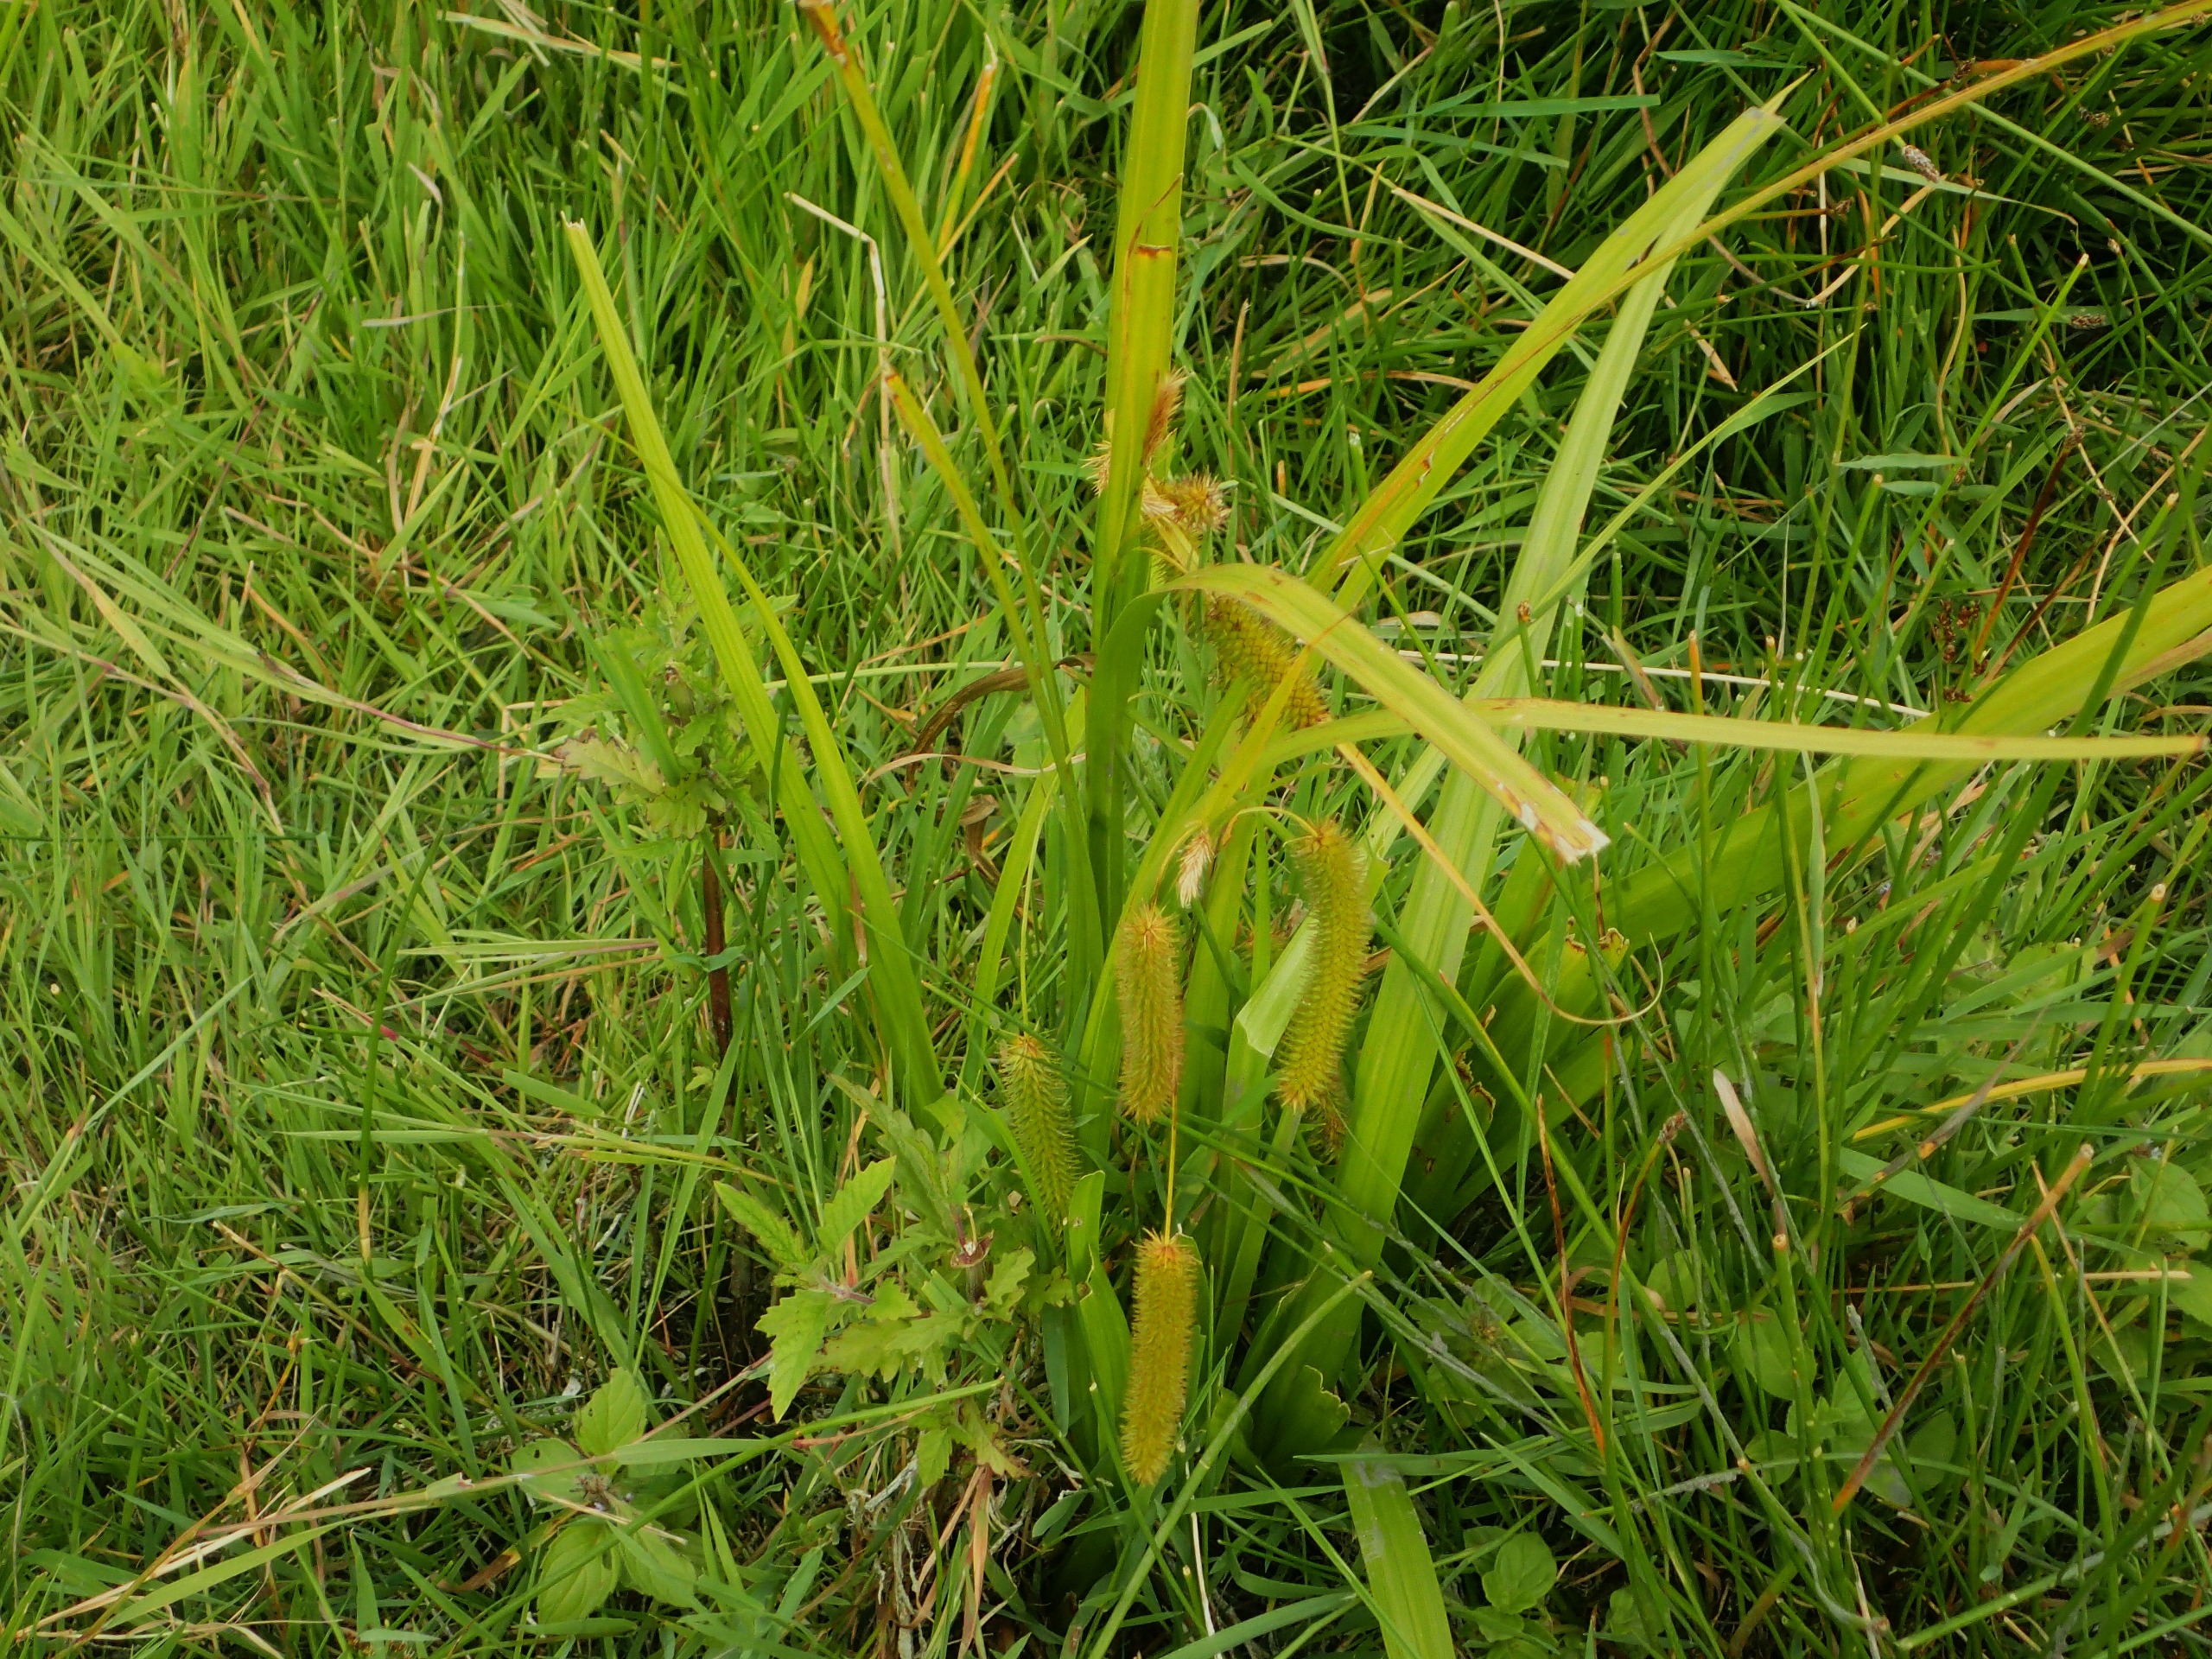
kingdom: Plantae
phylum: Tracheophyta
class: Liliopsida
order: Poales
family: Cyperaceae
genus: Carex
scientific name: Carex pseudocyperus
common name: Knippe-star
